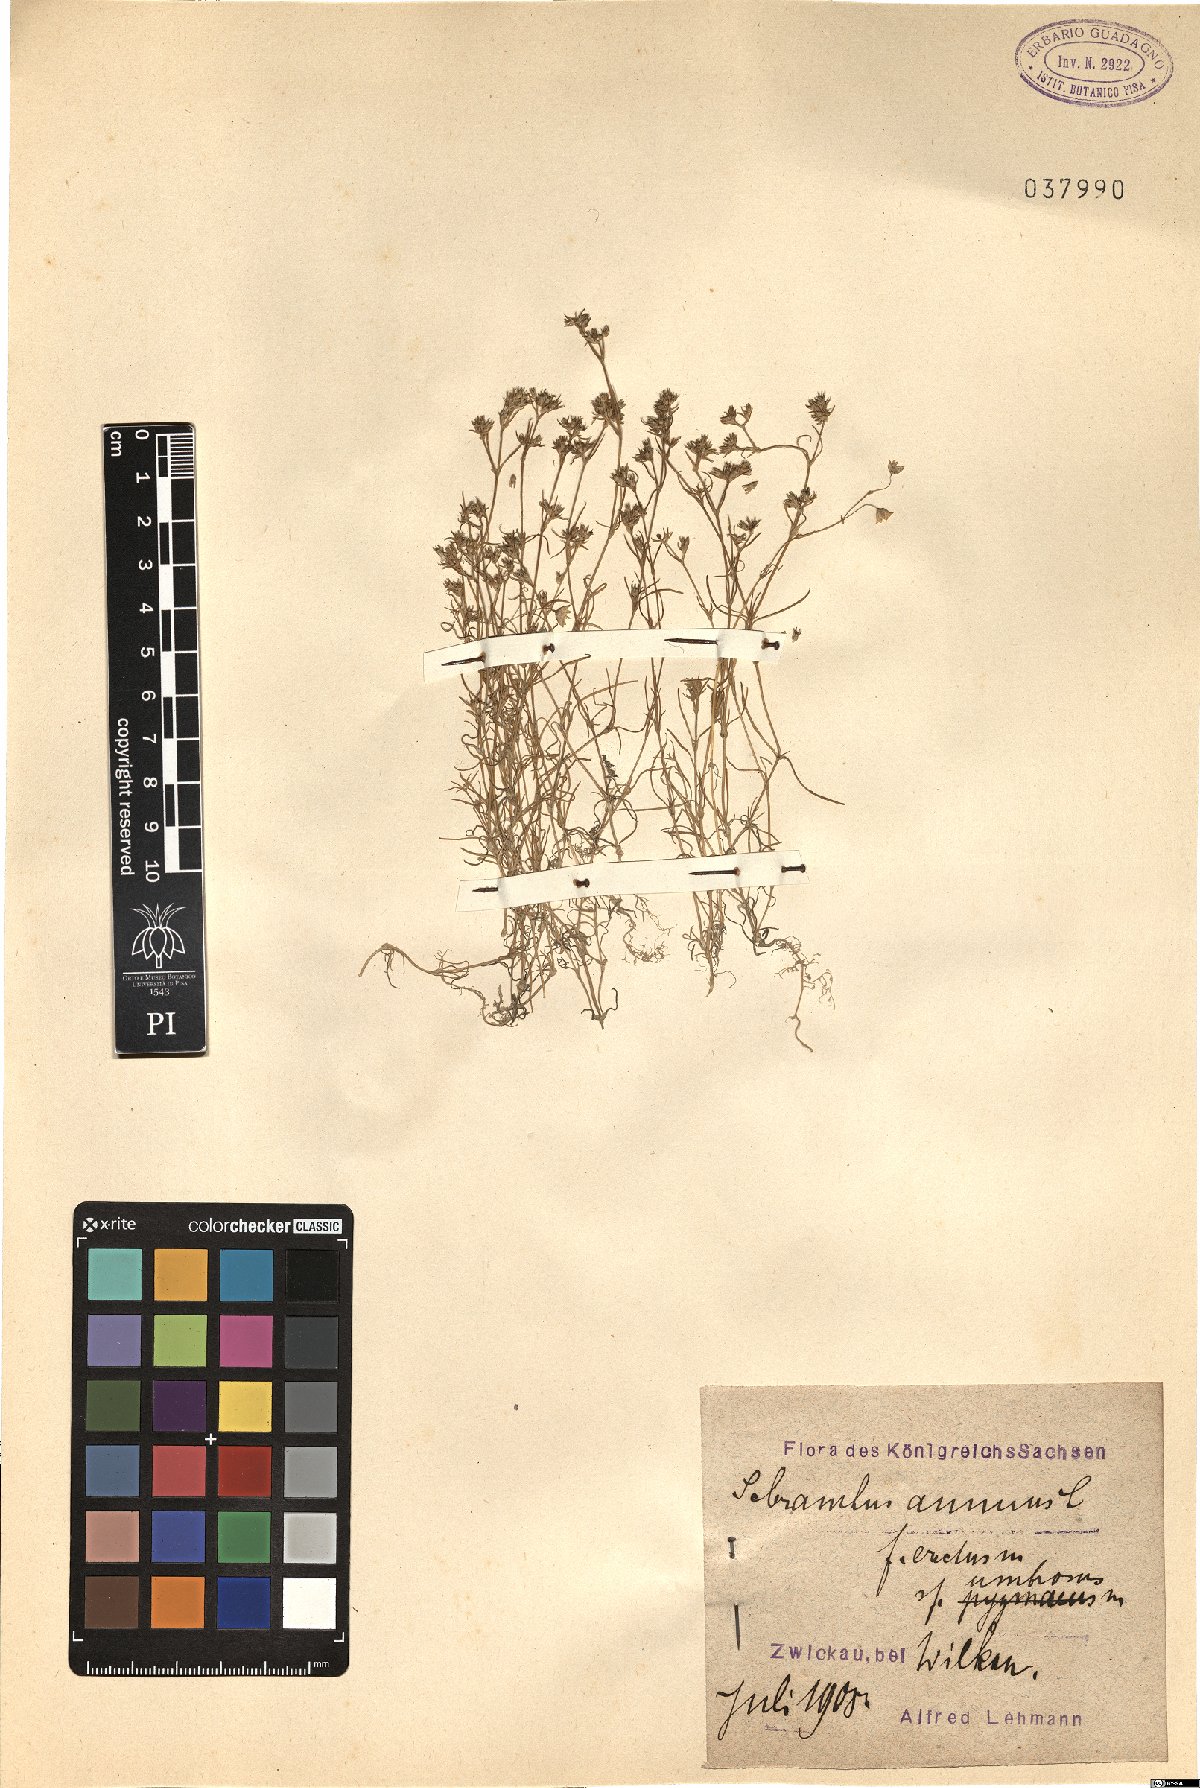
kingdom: Plantae
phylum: Tracheophyta
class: Magnoliopsida
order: Caryophyllales
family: Caryophyllaceae
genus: Scleranthus
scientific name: Scleranthus annuus
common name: Annual knawel
